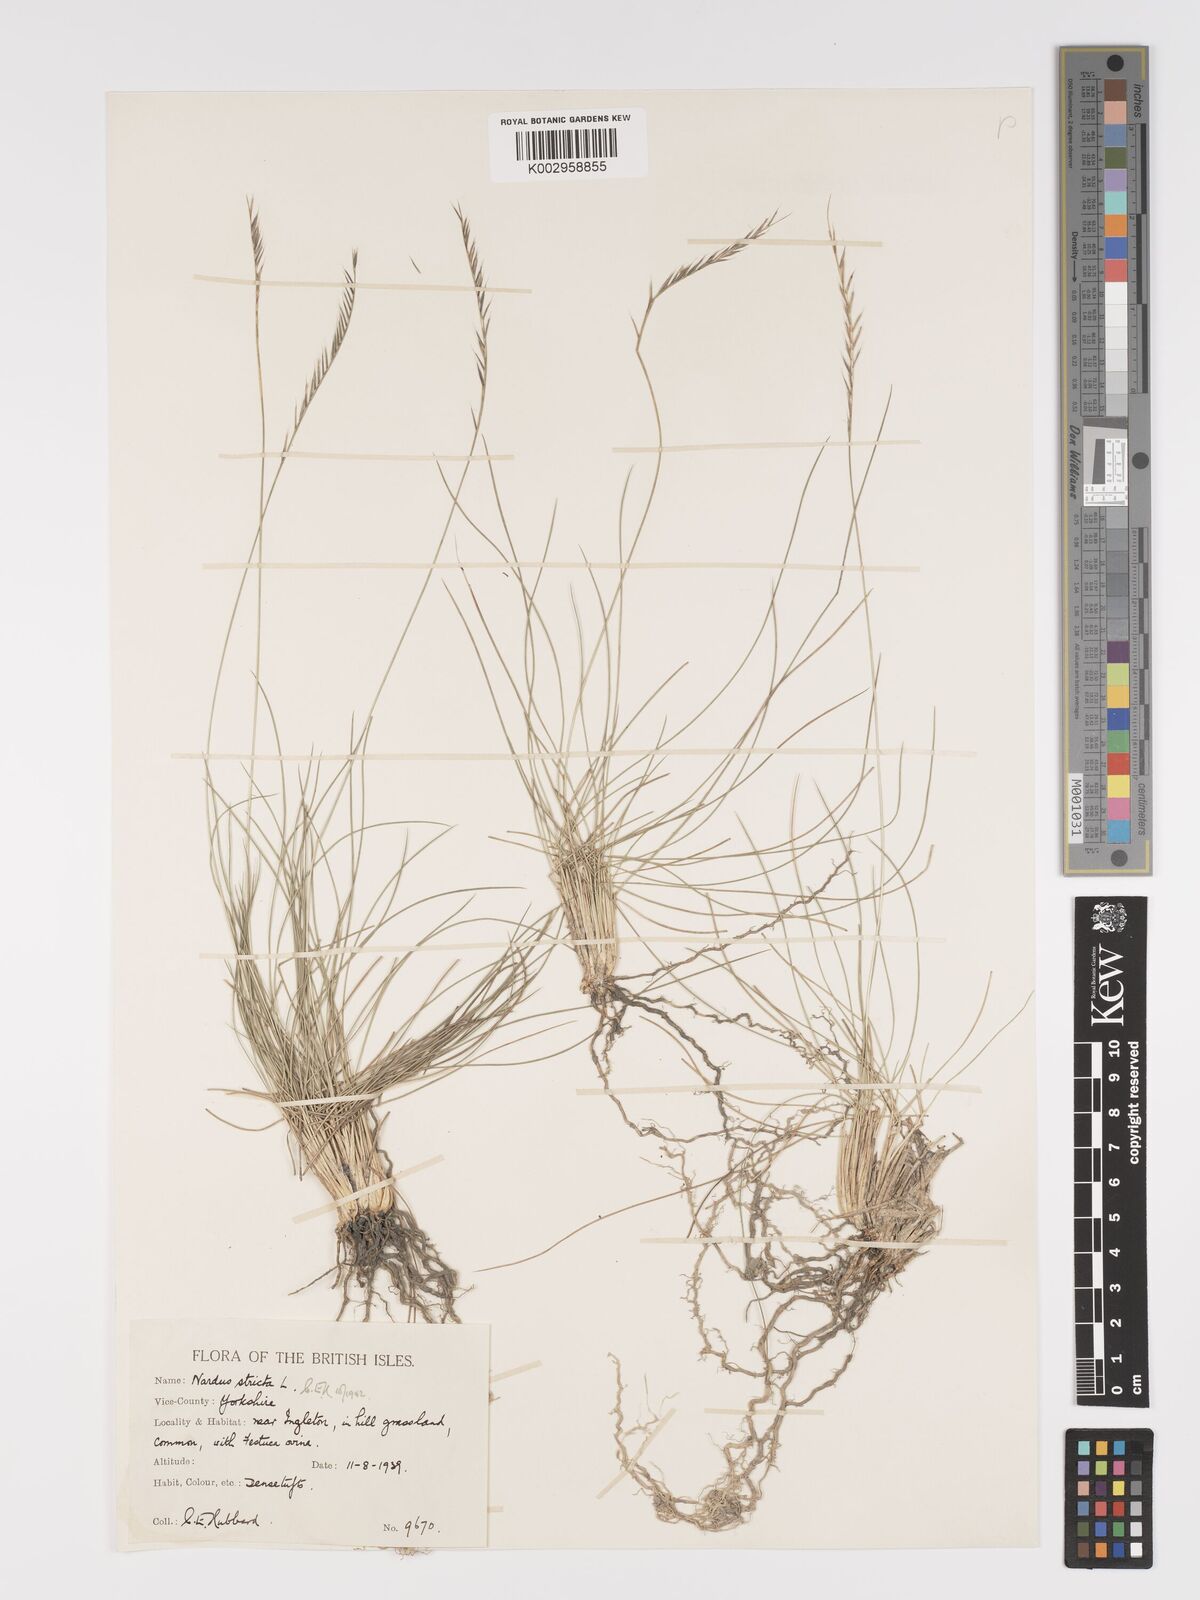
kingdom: Plantae
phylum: Tracheophyta
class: Liliopsida
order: Poales
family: Poaceae
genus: Nardus
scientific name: Nardus stricta
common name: Mat-grass
